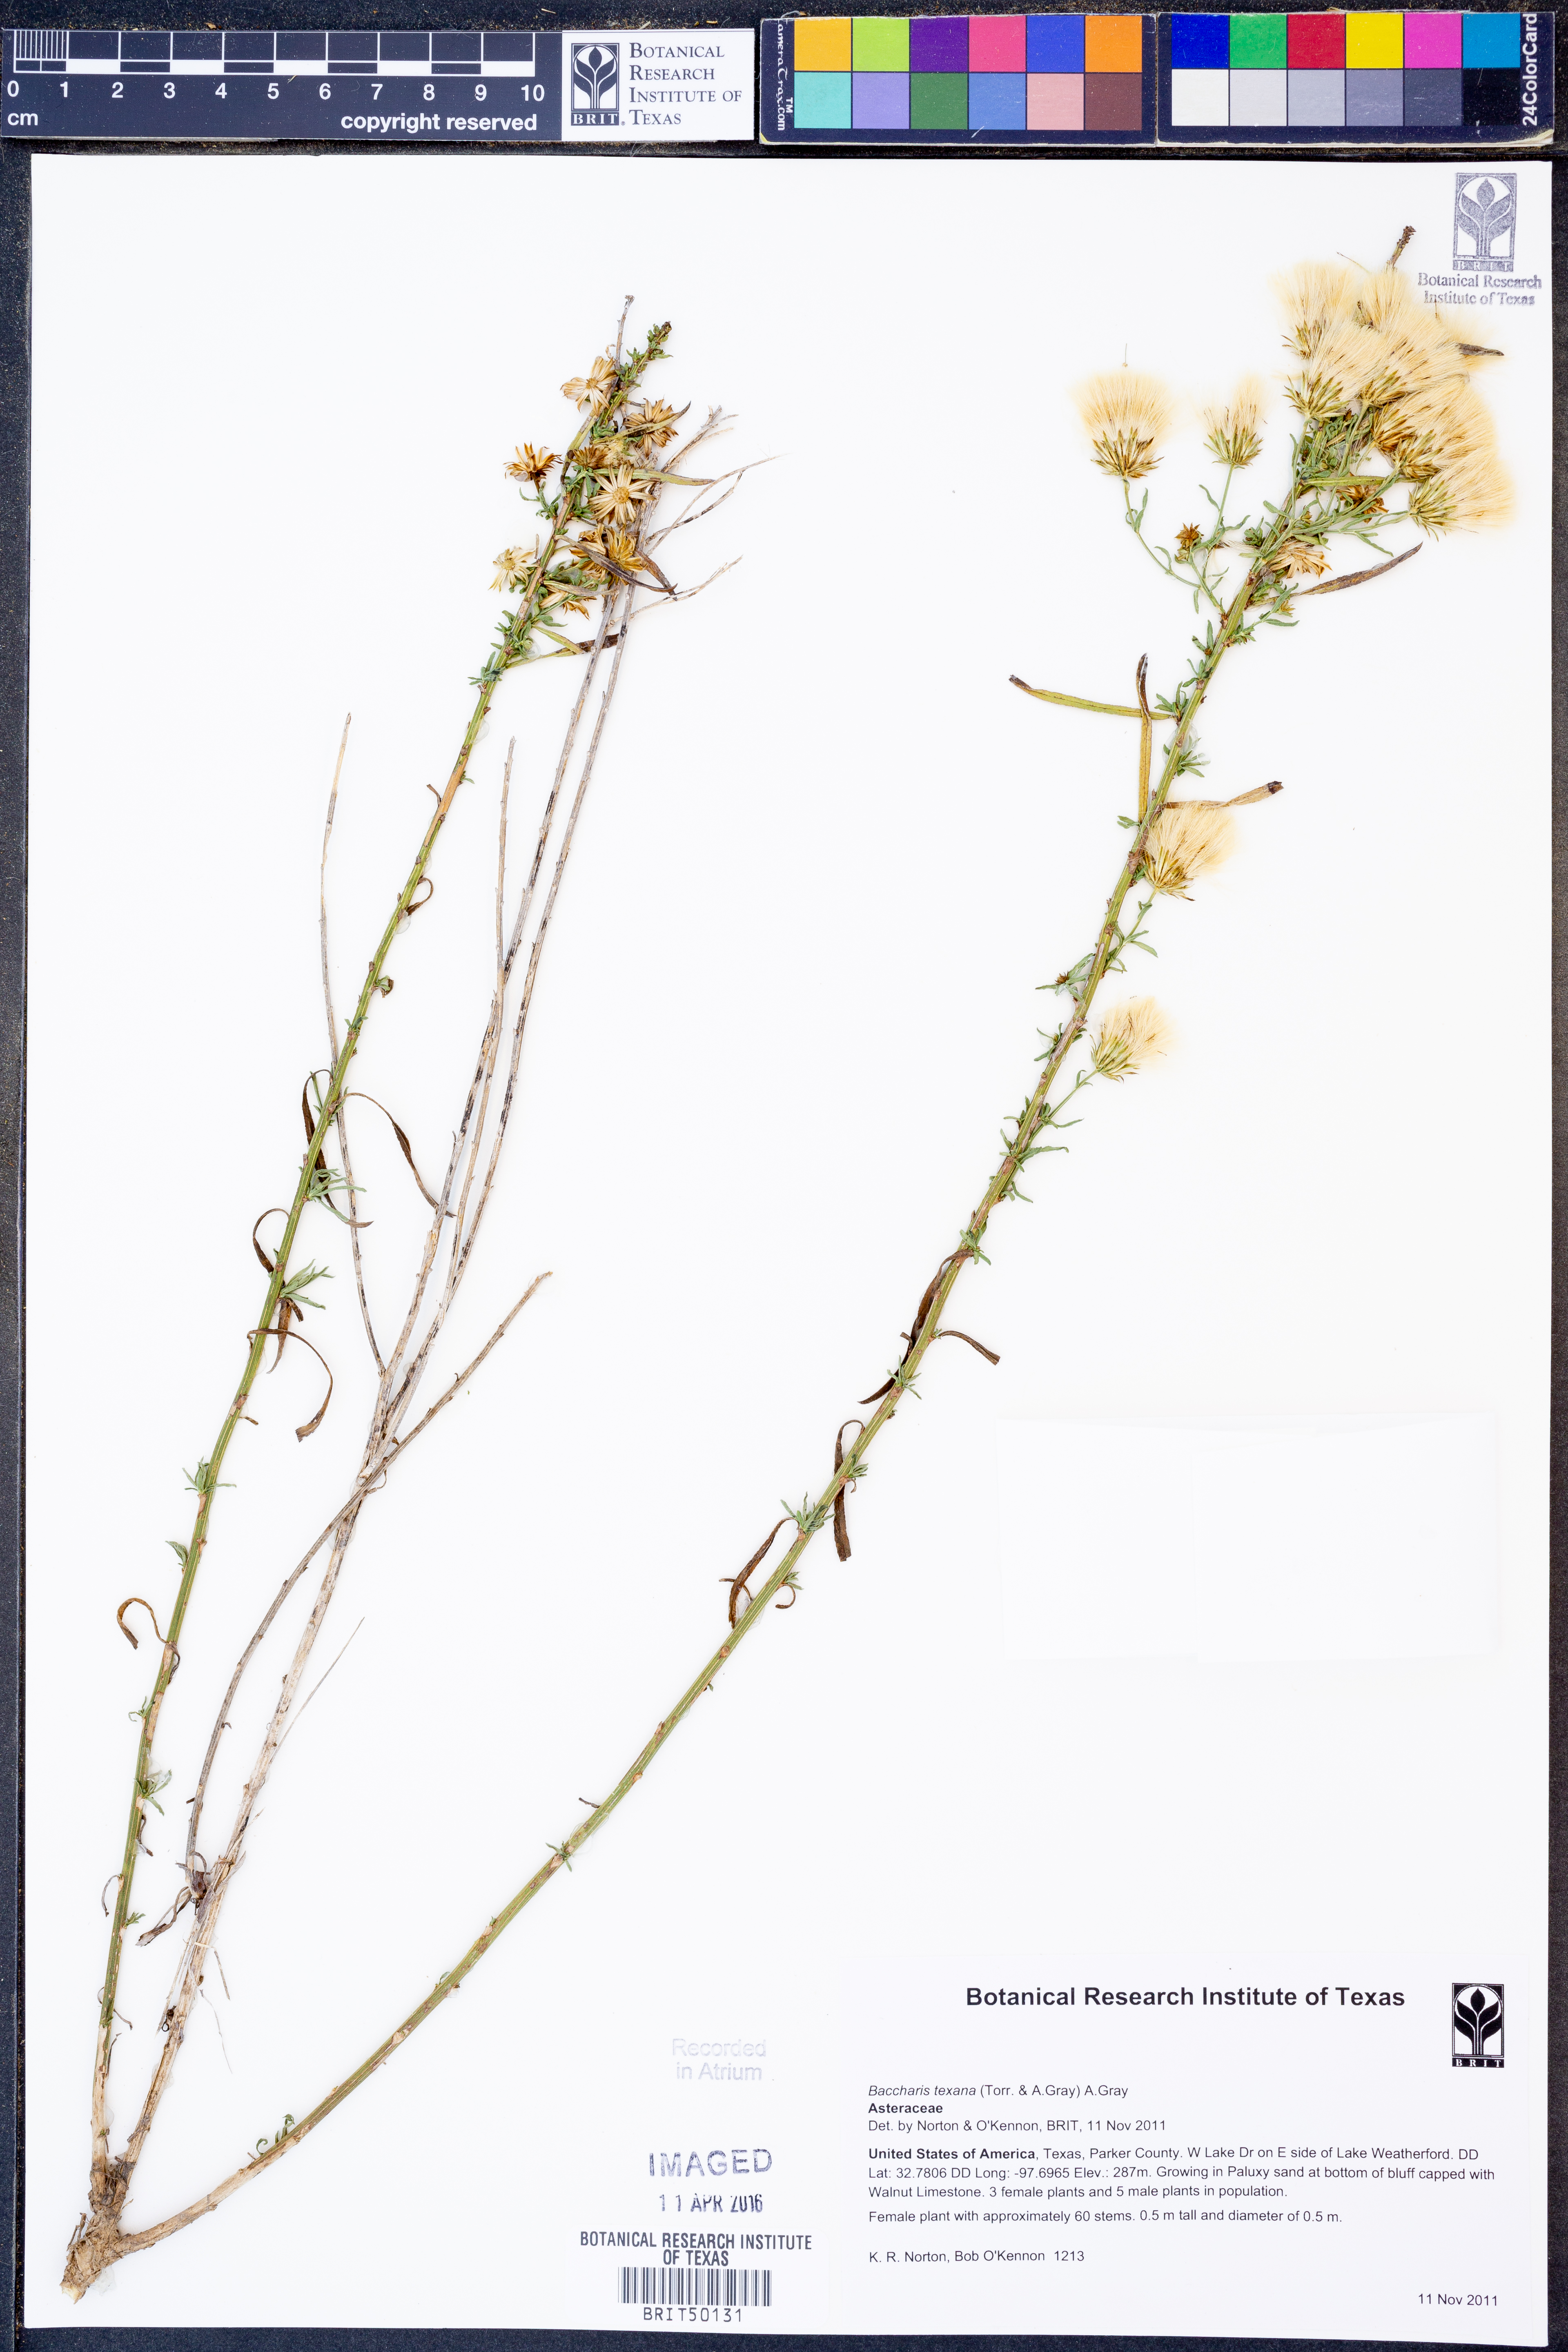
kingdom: Plantae
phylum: Tracheophyta
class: Magnoliopsida
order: Asterales
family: Asteraceae
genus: Baccharis
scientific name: Baccharis texana
